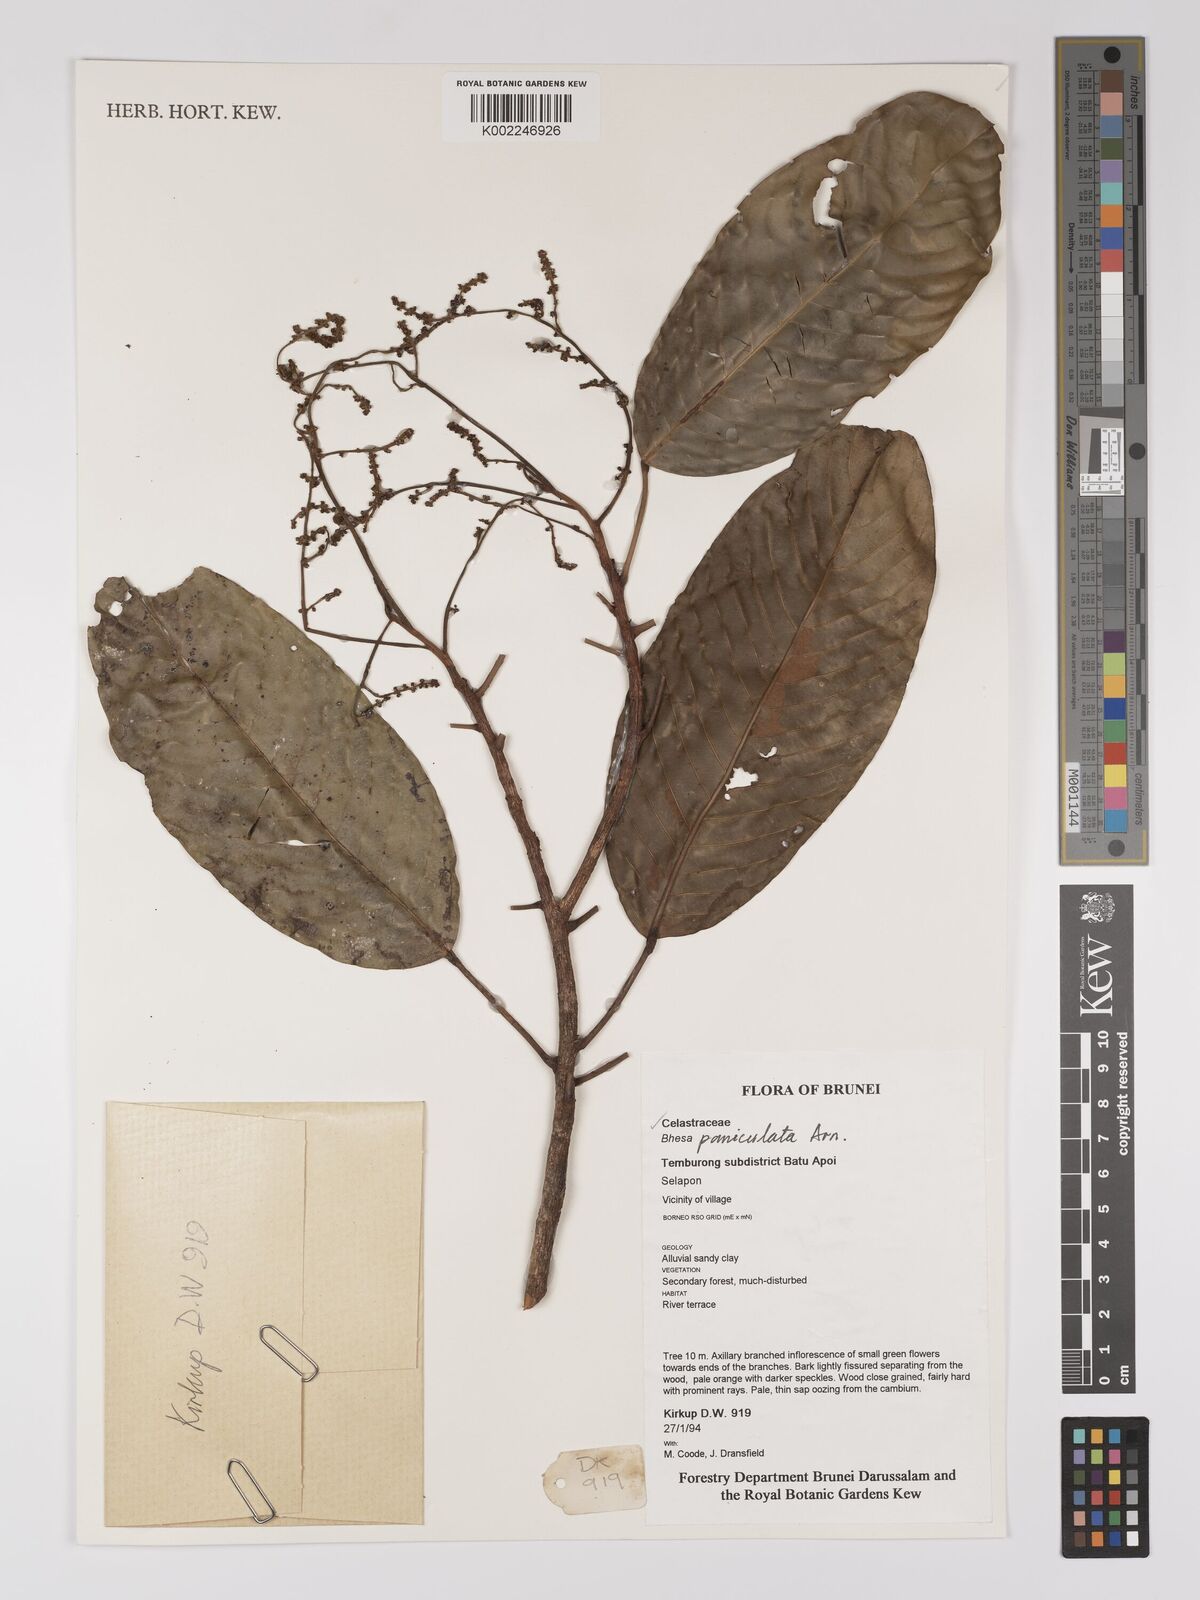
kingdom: Plantae
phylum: Tracheophyta
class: Magnoliopsida
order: Malpighiales
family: Centroplacaceae
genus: Bhesa
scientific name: Bhesa paniculata
